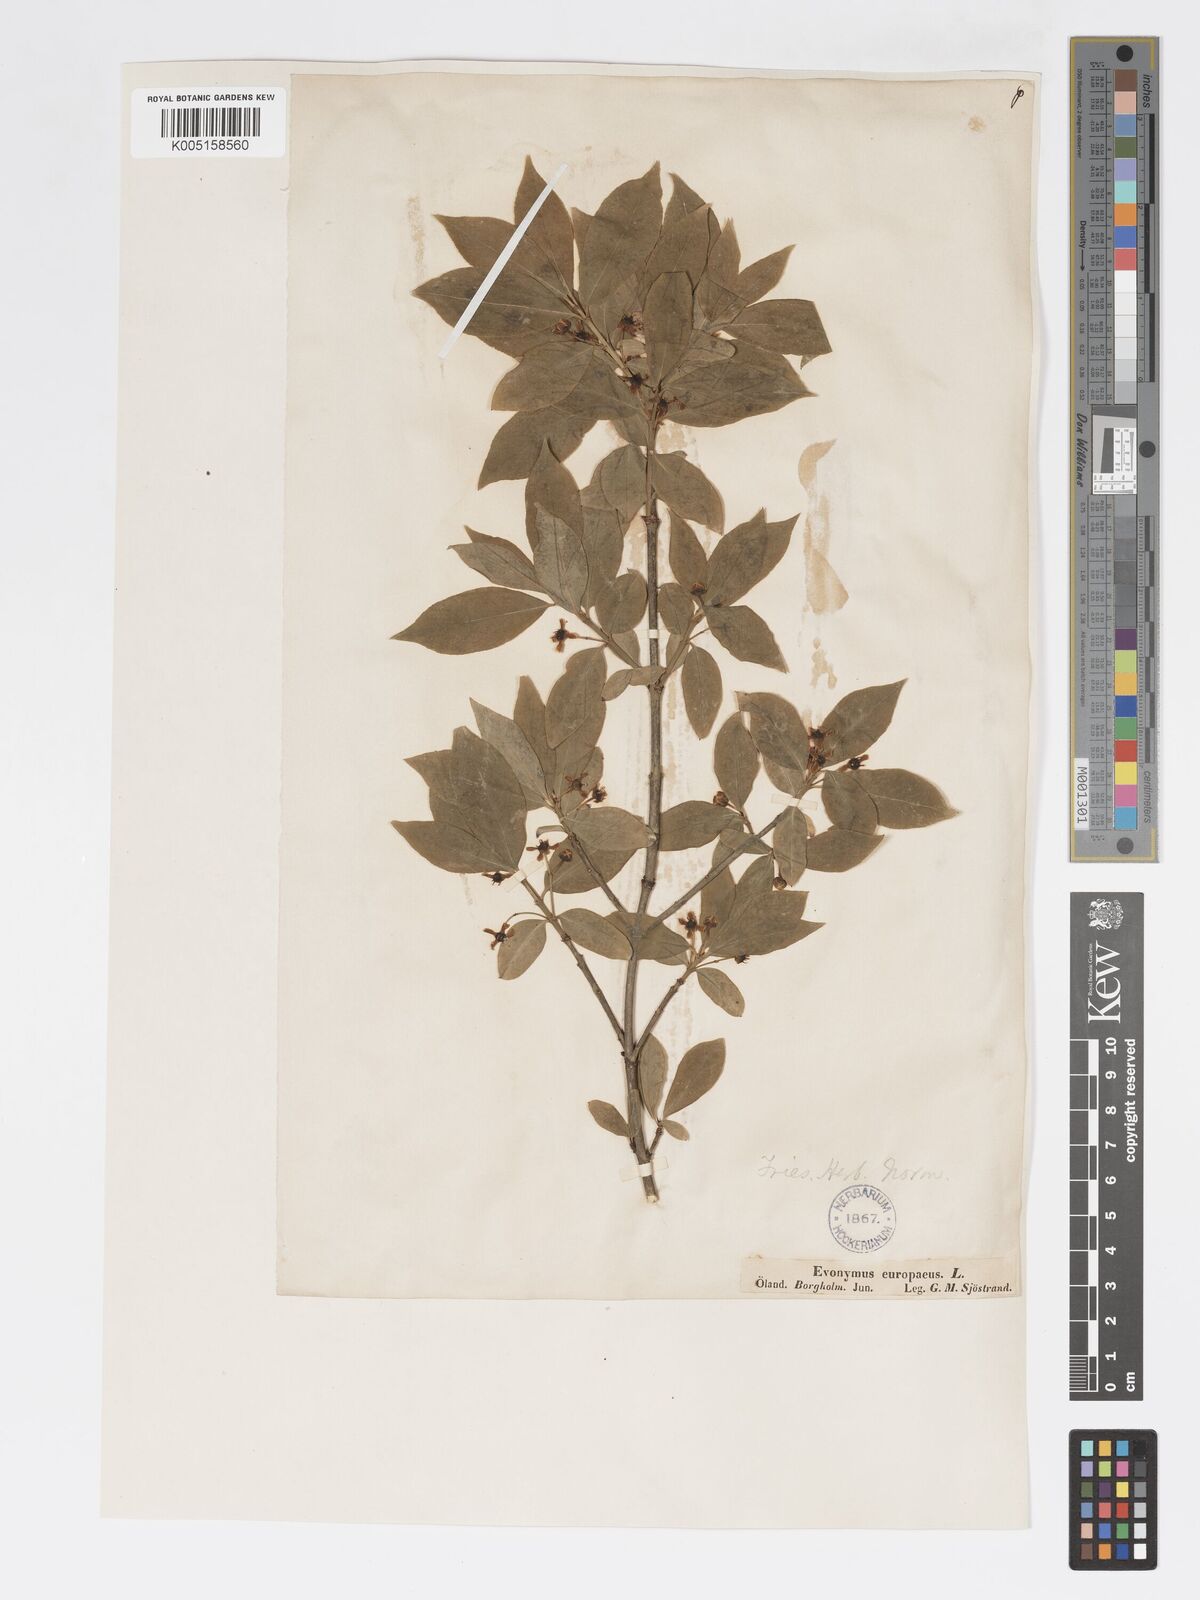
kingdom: Plantae
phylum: Tracheophyta
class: Magnoliopsida
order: Celastrales
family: Celastraceae
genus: Euonymus
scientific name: Euonymus europaeus
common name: Spindle
